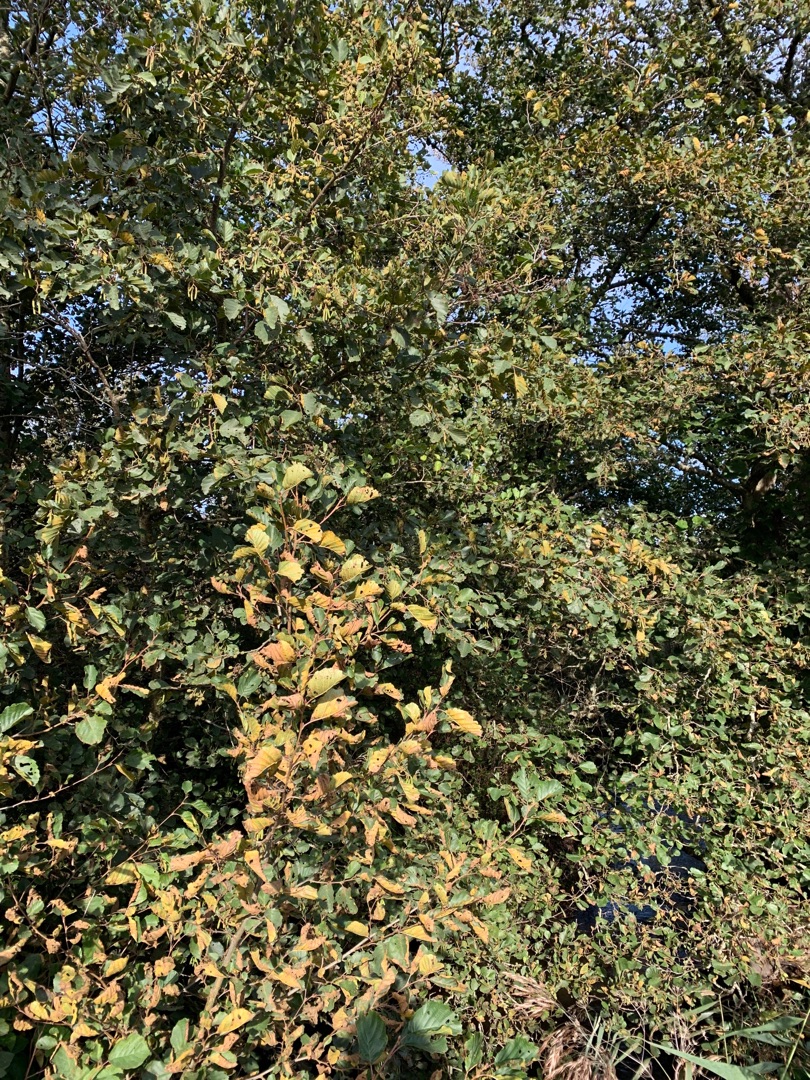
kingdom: Plantae
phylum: Tracheophyta
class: Magnoliopsida
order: Fagales
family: Betulaceae
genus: Alnus
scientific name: Alnus glutinosa
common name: Rød-el
